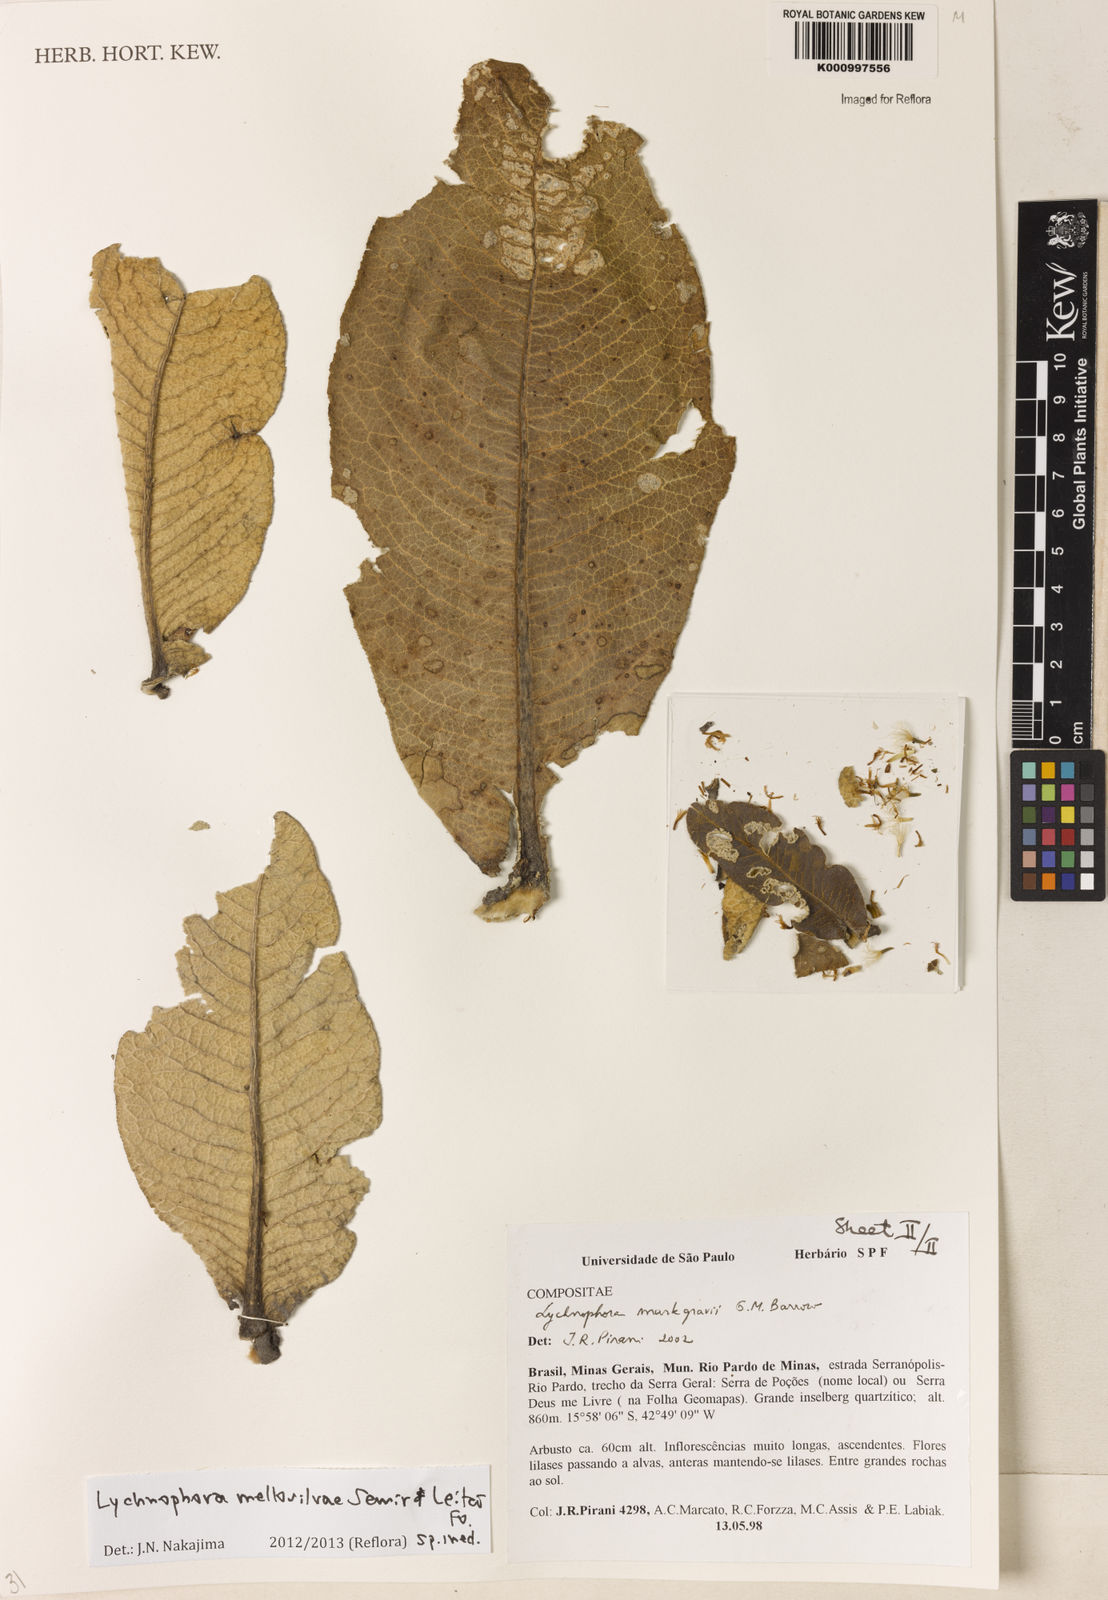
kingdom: Plantae
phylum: Tracheophyta
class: Magnoliopsida
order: Asterales
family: Asteraceae
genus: Lychnophora
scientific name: Lychnophora
